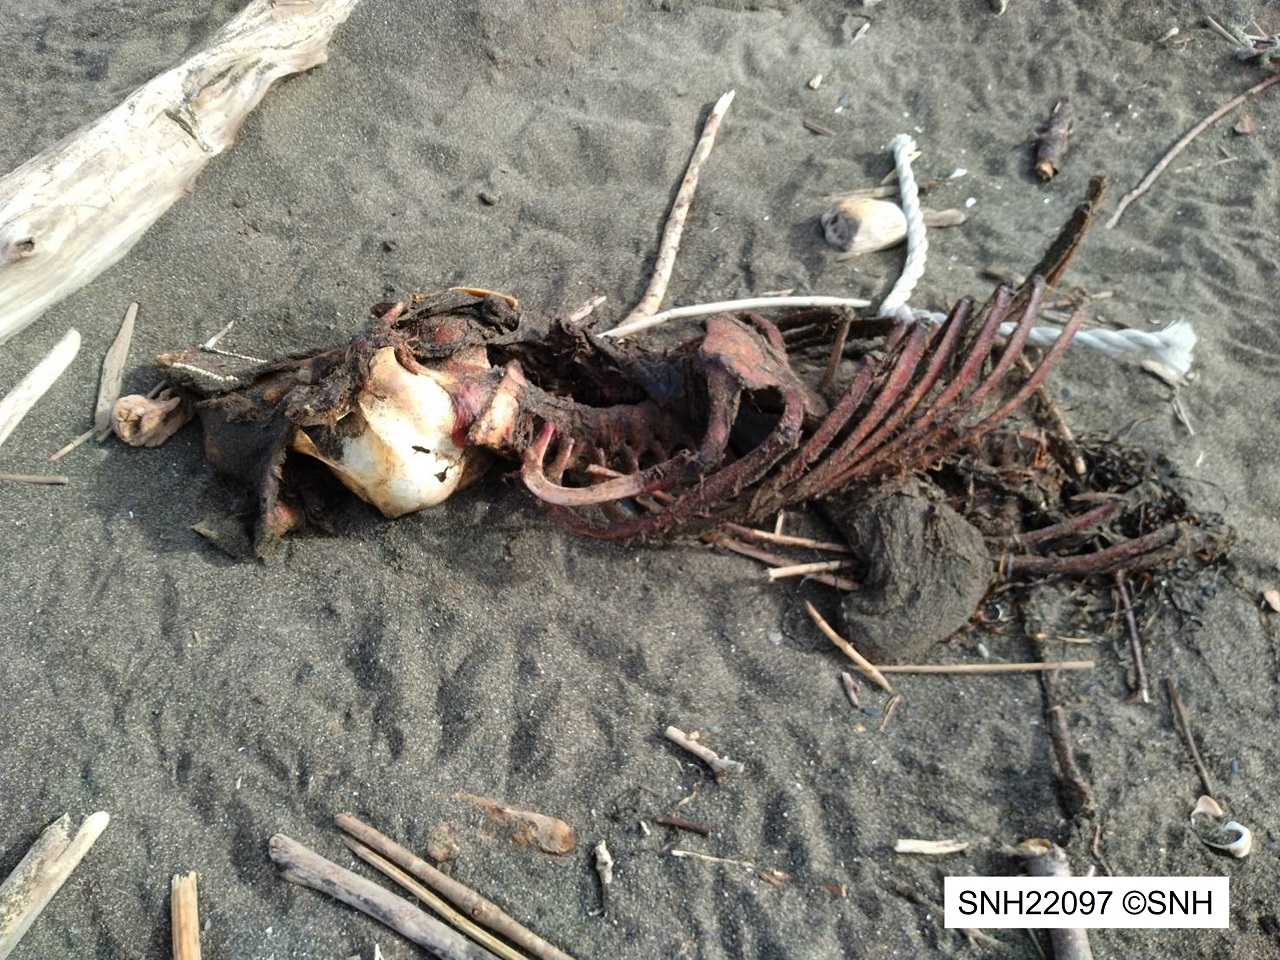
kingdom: Animalia
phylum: Chordata
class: Mammalia
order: Cetacea
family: Phocoenidae
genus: Phocoena
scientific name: Phocoena phocoena
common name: Harbour porpoise
